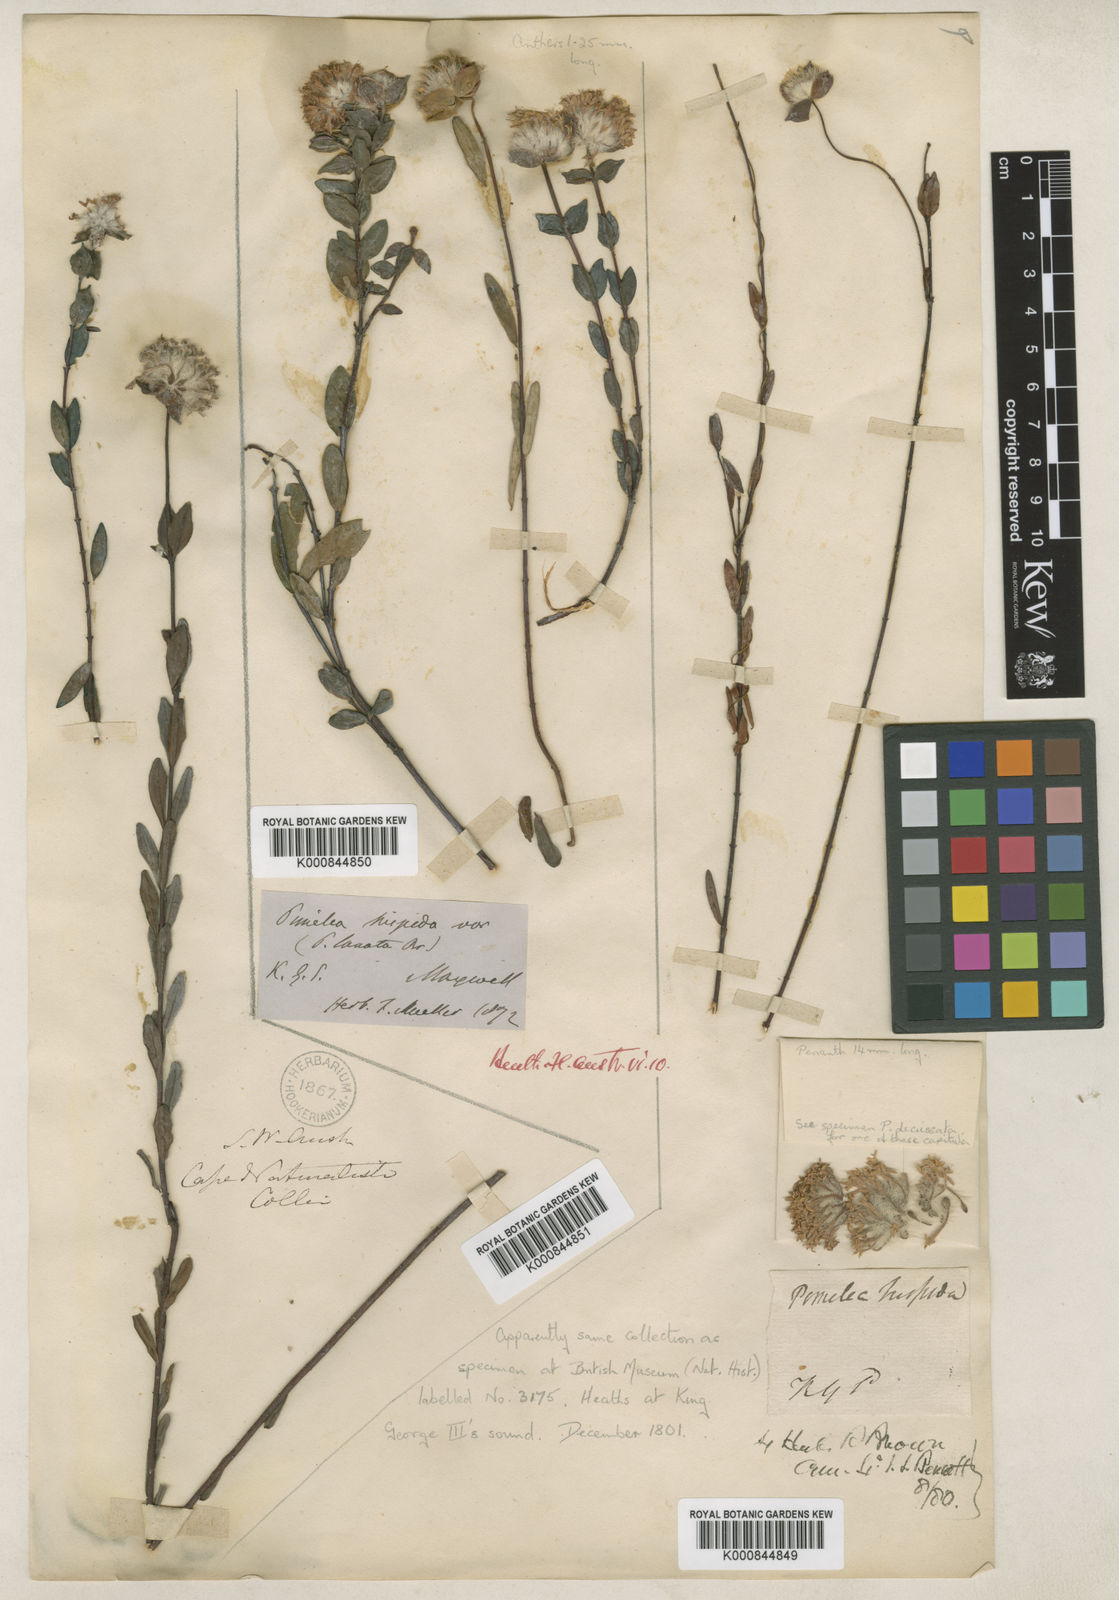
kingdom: Plantae
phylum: Tracheophyta
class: Magnoliopsida
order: Malvales
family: Thymelaeaceae
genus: Pimelea
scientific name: Pimelea hispida
